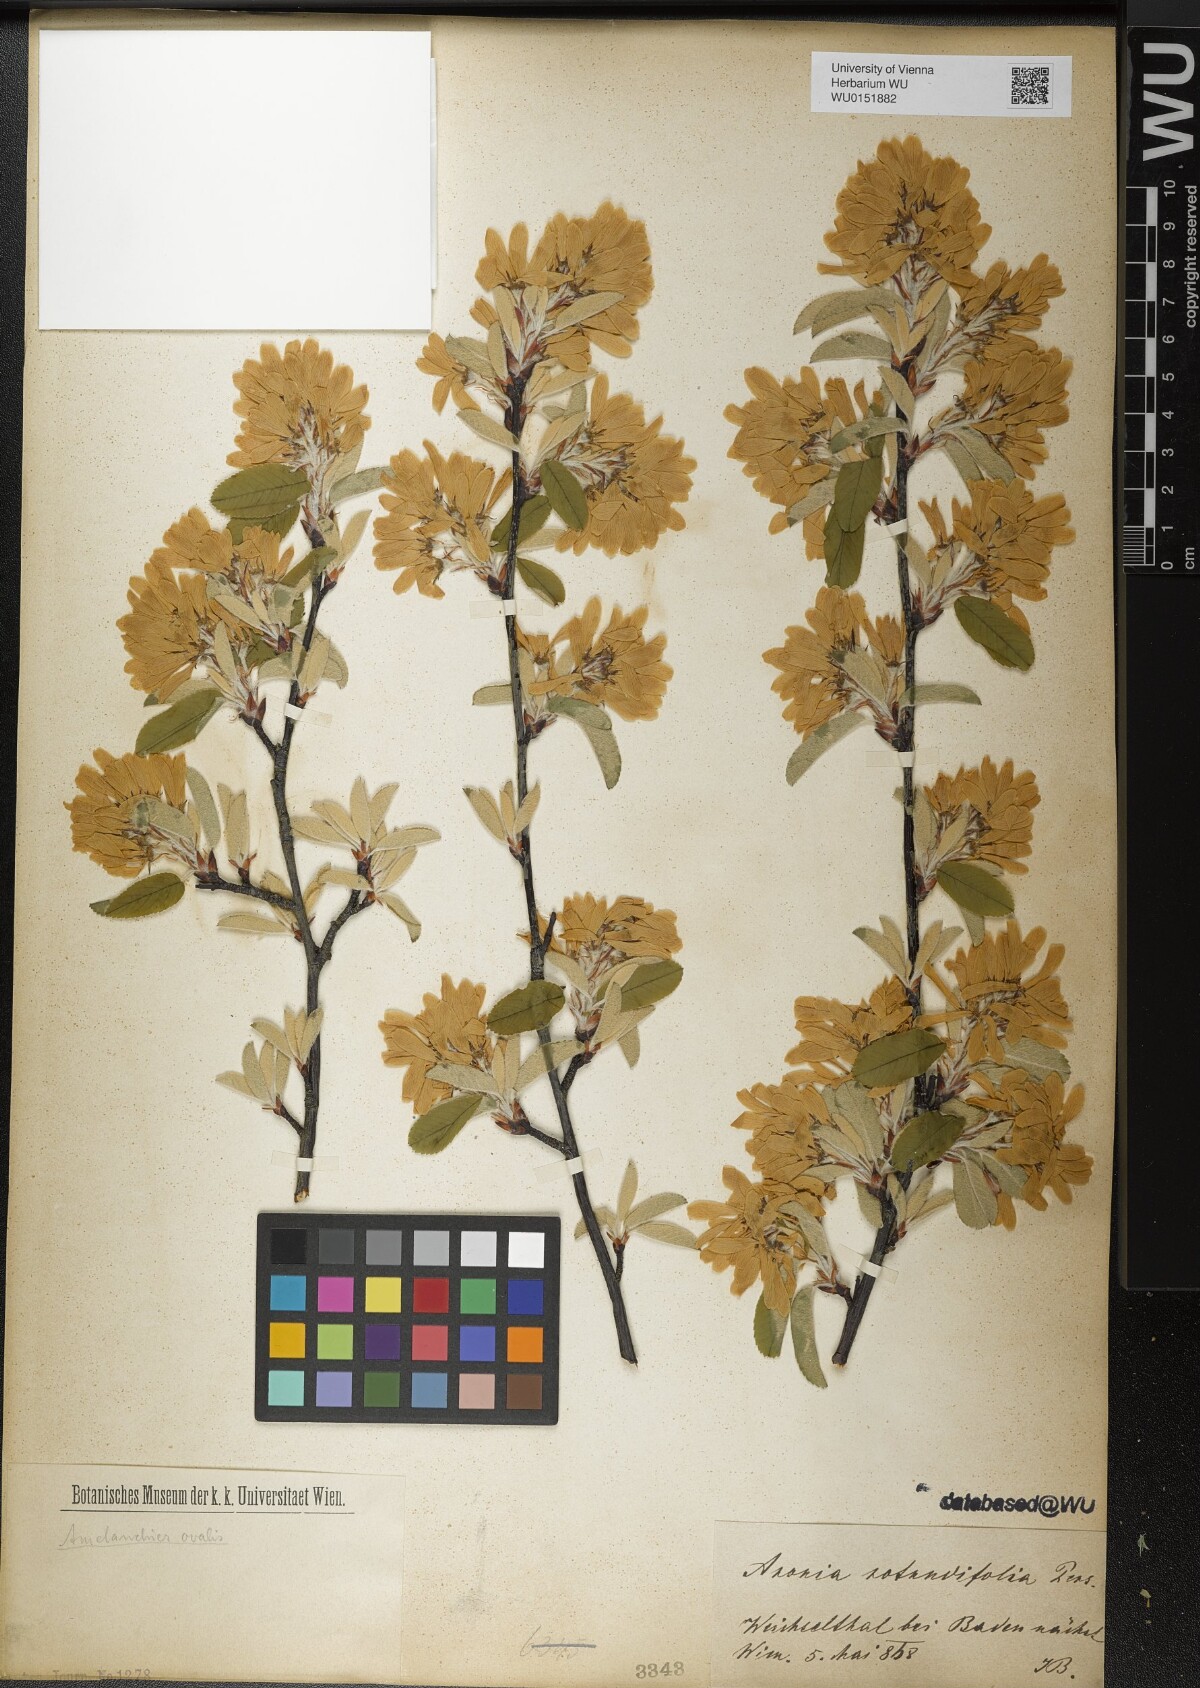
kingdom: Plantae
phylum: Tracheophyta
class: Magnoliopsida
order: Rosales
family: Rosaceae
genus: Amelanchier
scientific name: Amelanchier ovalis
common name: Serviceberry
